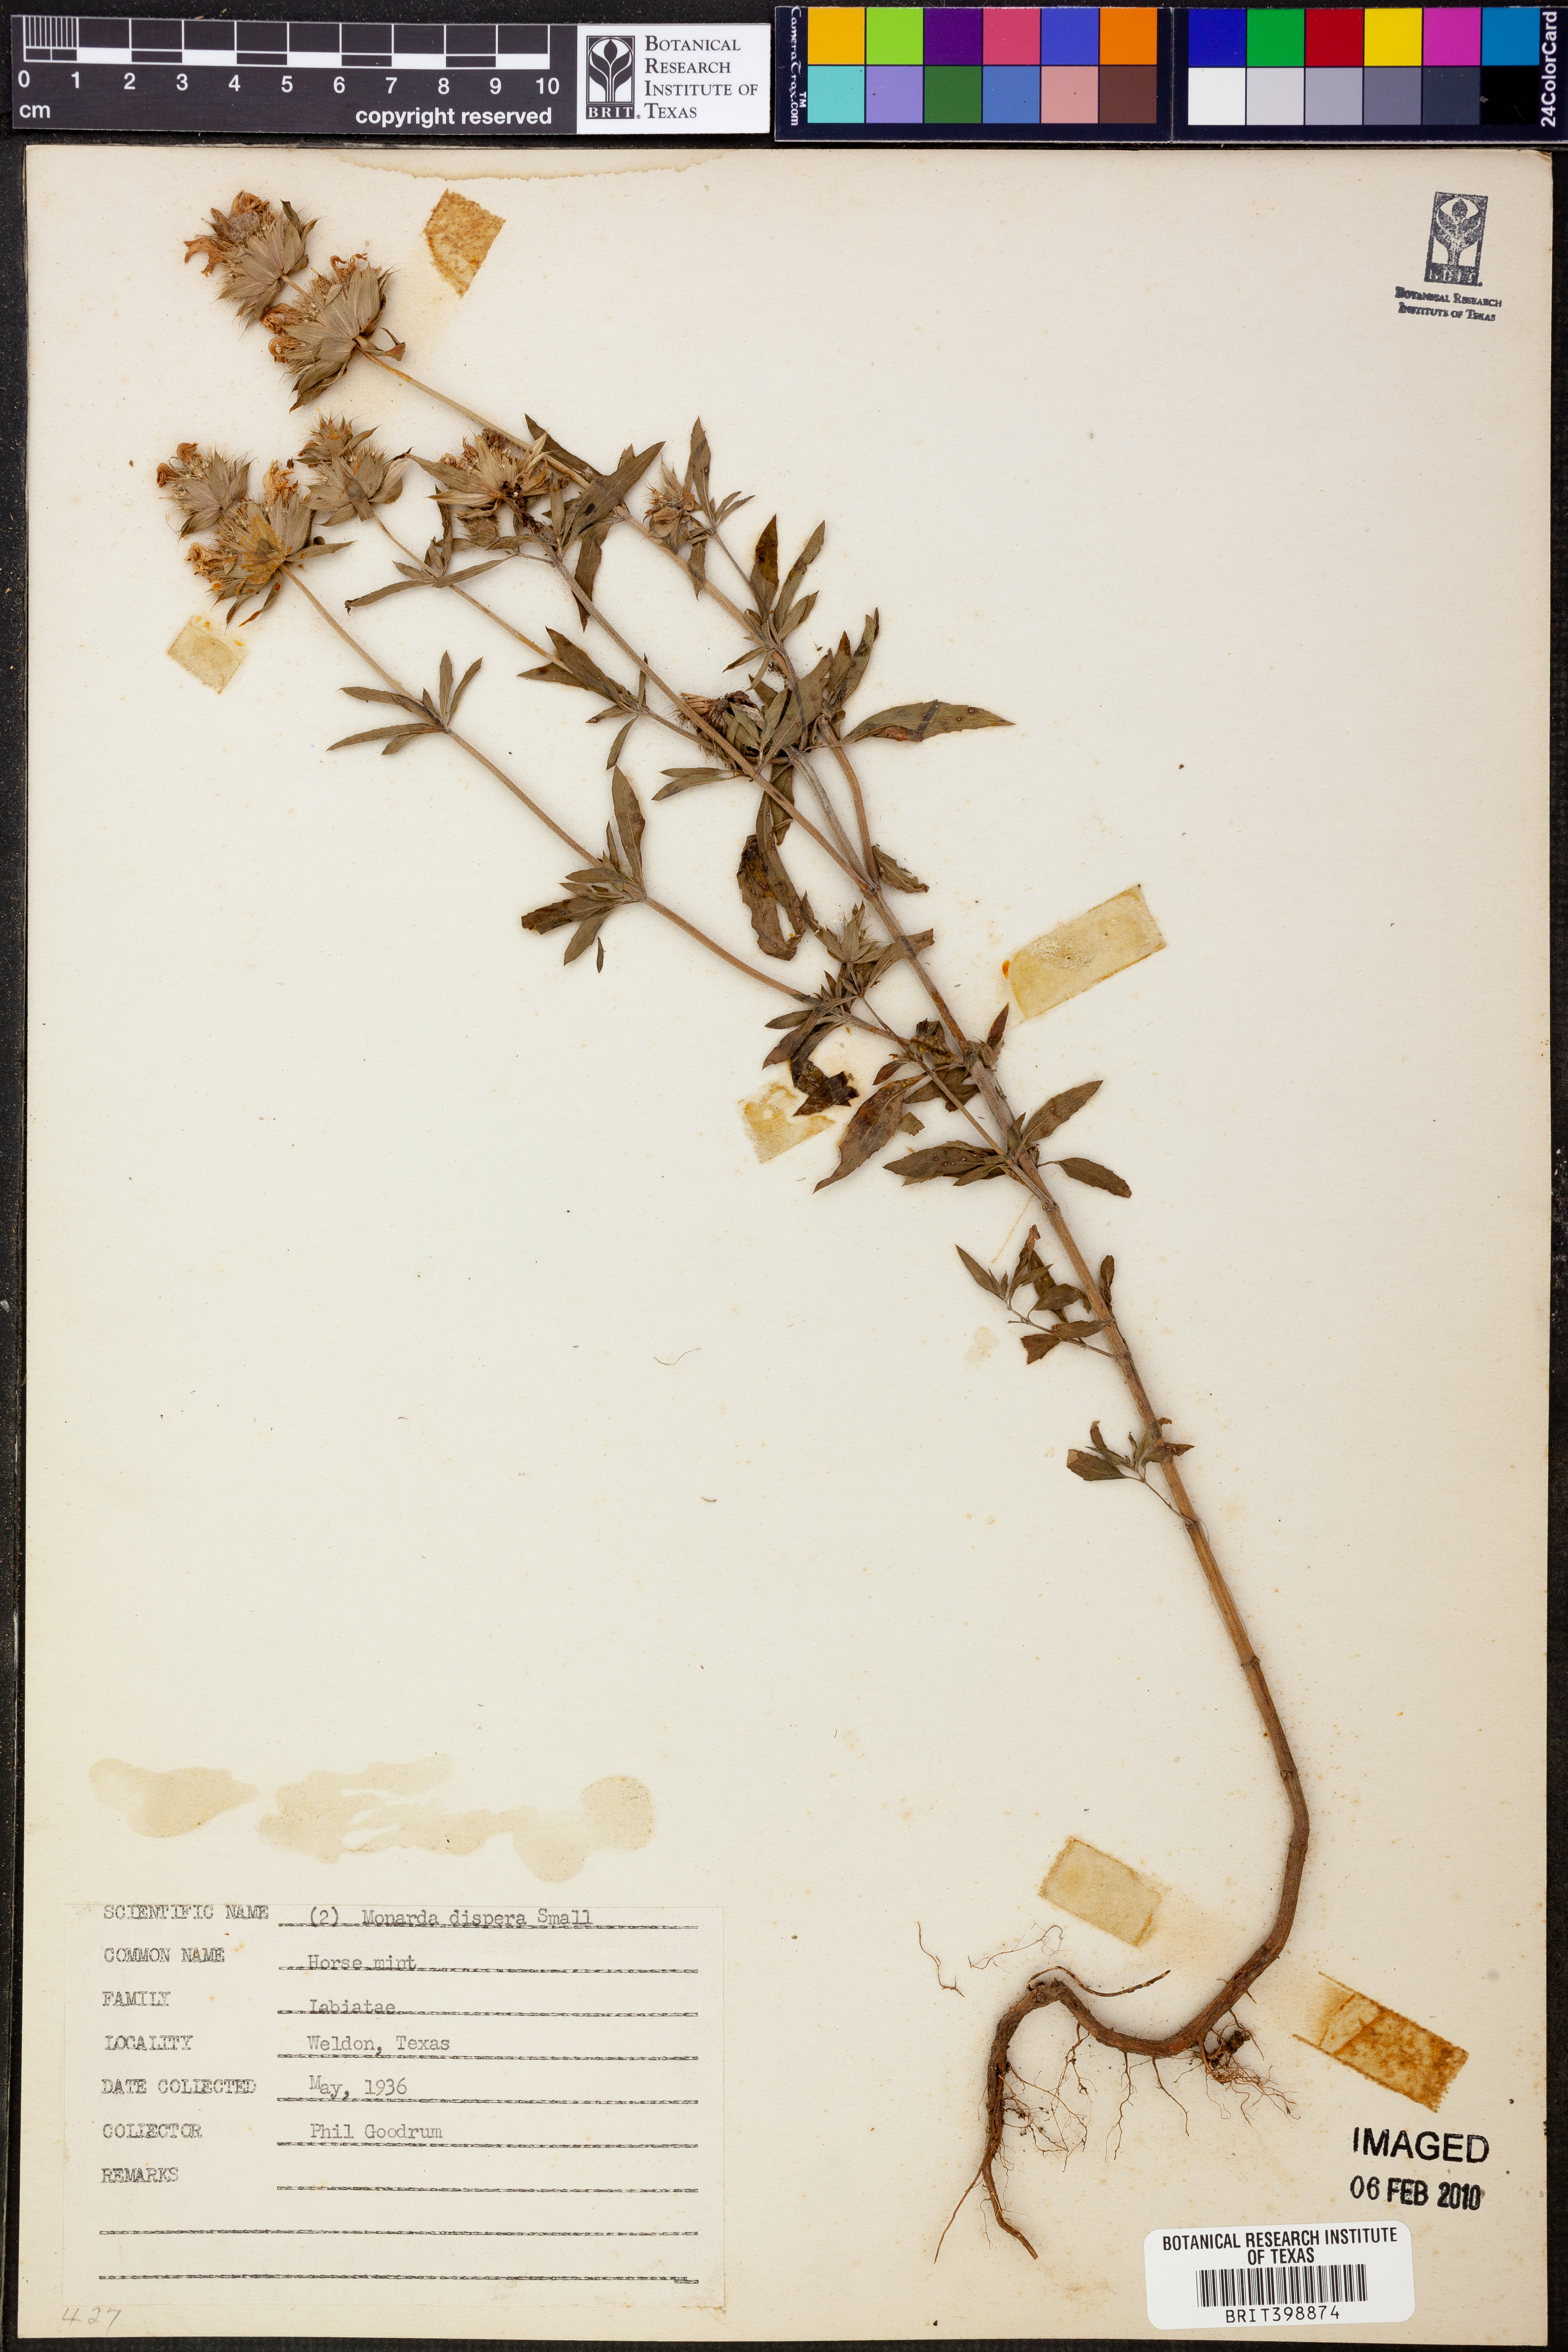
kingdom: Plantae
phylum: Tracheophyta
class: Magnoliopsida
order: Lamiales
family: Lamiaceae
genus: Monarda
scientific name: Monarda citriodora
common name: Lemon beebalm
